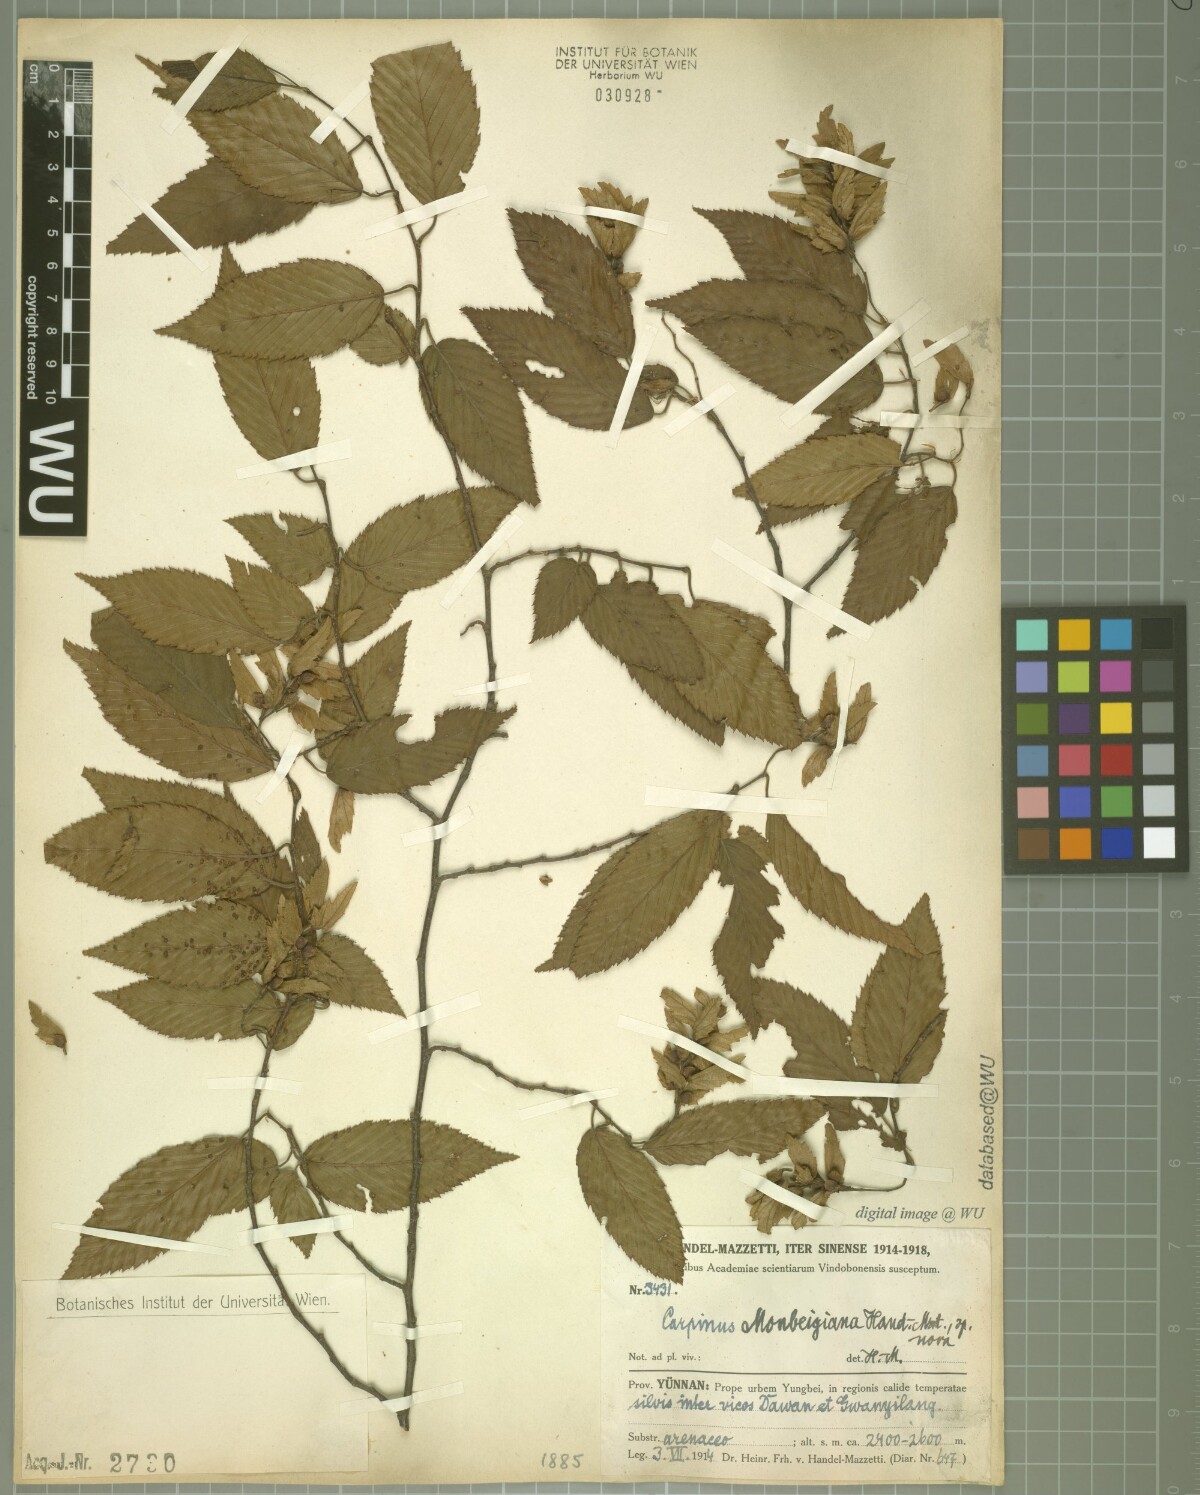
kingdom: Plantae
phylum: Tracheophyta
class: Magnoliopsida
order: Fagales
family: Betulaceae
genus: Carpinus
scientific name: Carpinus monbeigiana
